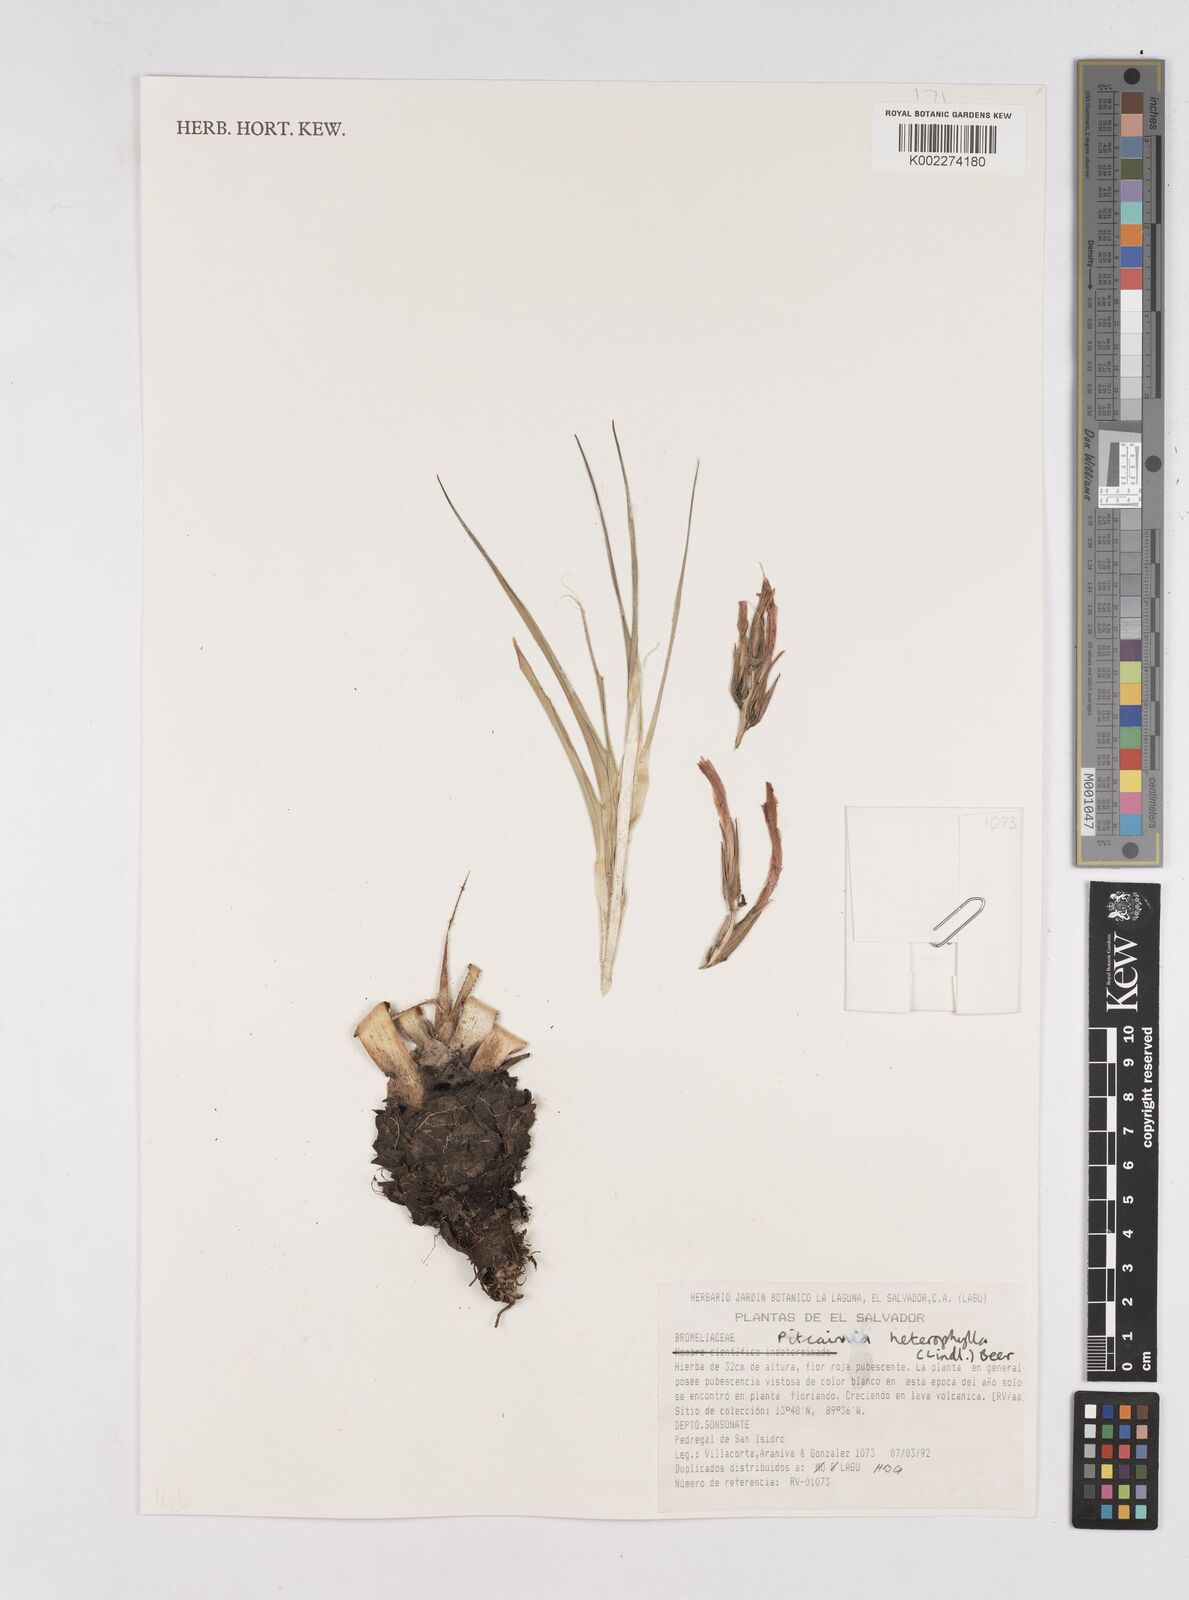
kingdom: Plantae
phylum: Tracheophyta
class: Liliopsida
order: Poales
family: Bromeliaceae
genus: Pitcairnia
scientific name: Pitcairnia heterophylla
